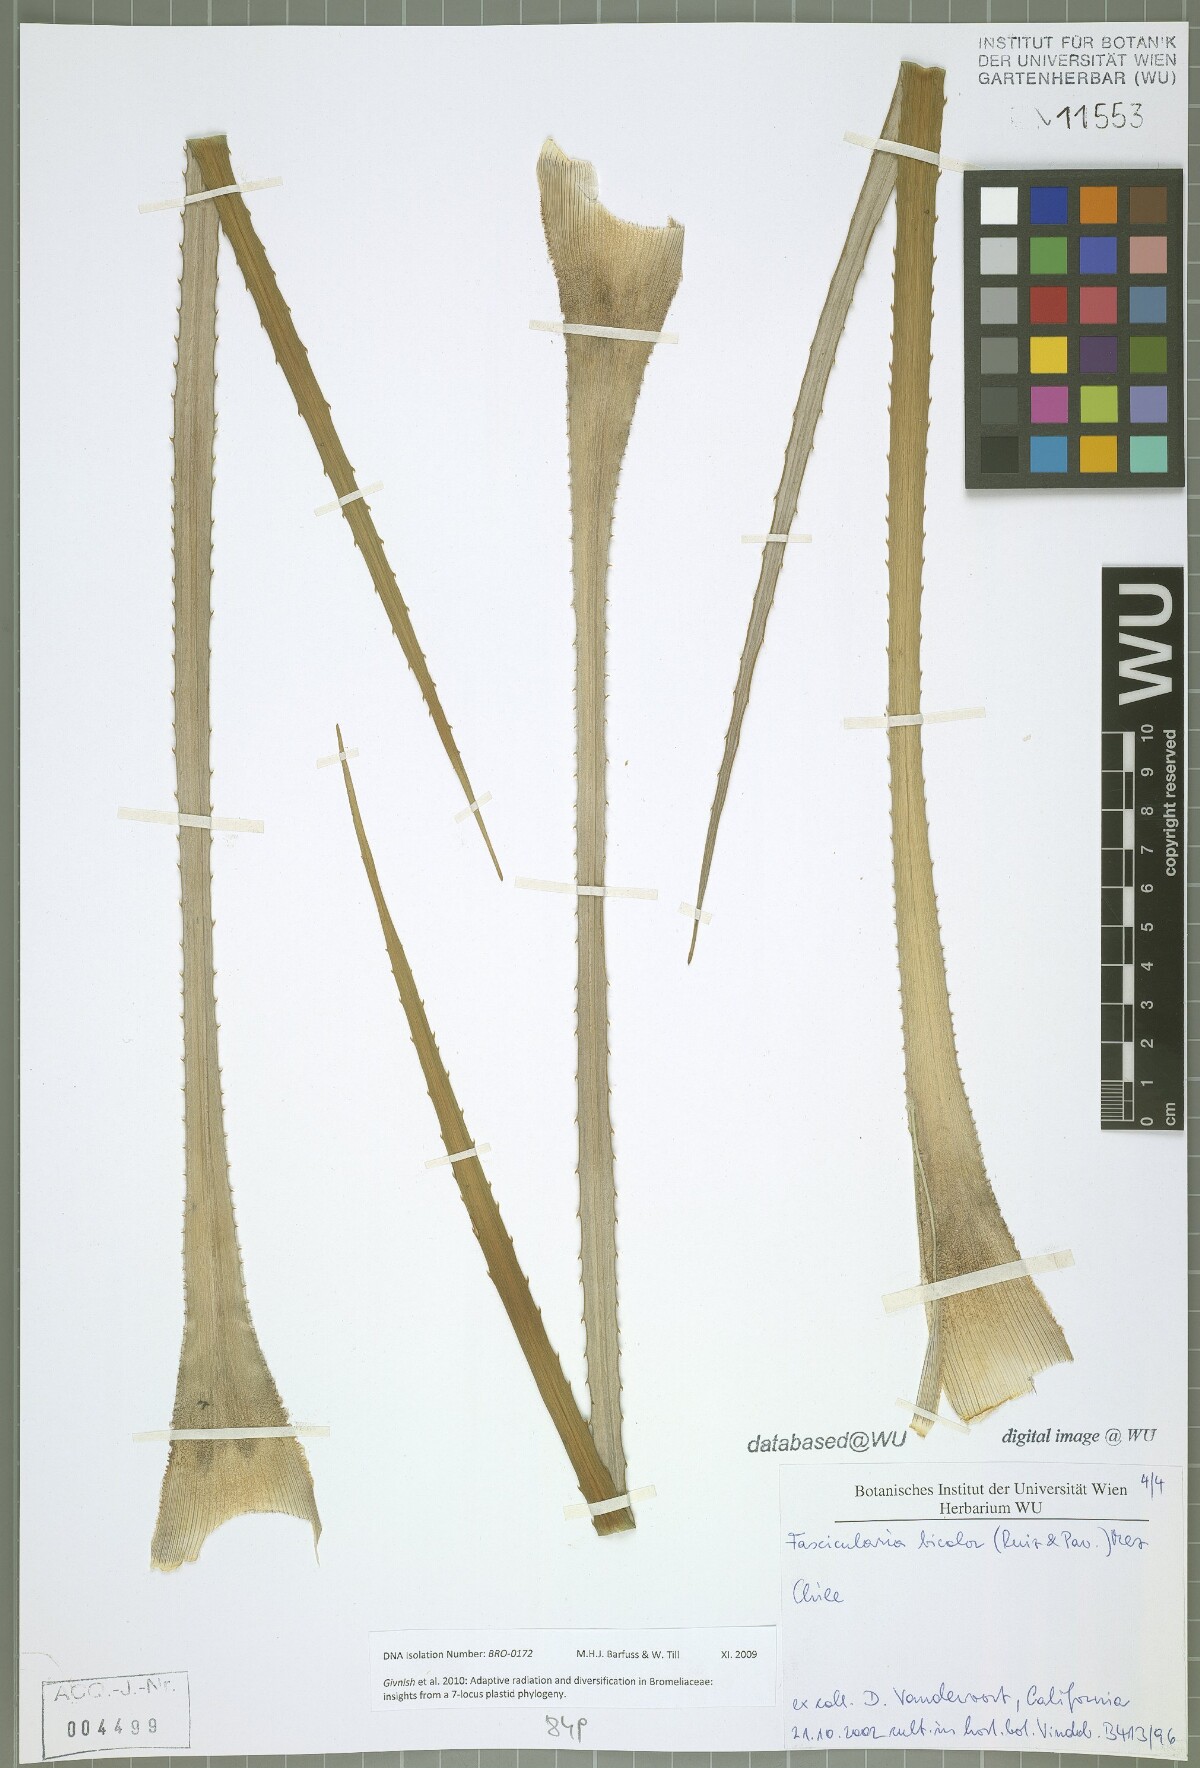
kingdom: Plantae
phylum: Tracheophyta
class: Liliopsida
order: Poales
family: Bromeliaceae
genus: Fascicularia
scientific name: Fascicularia bicolor
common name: Rhodostachys
